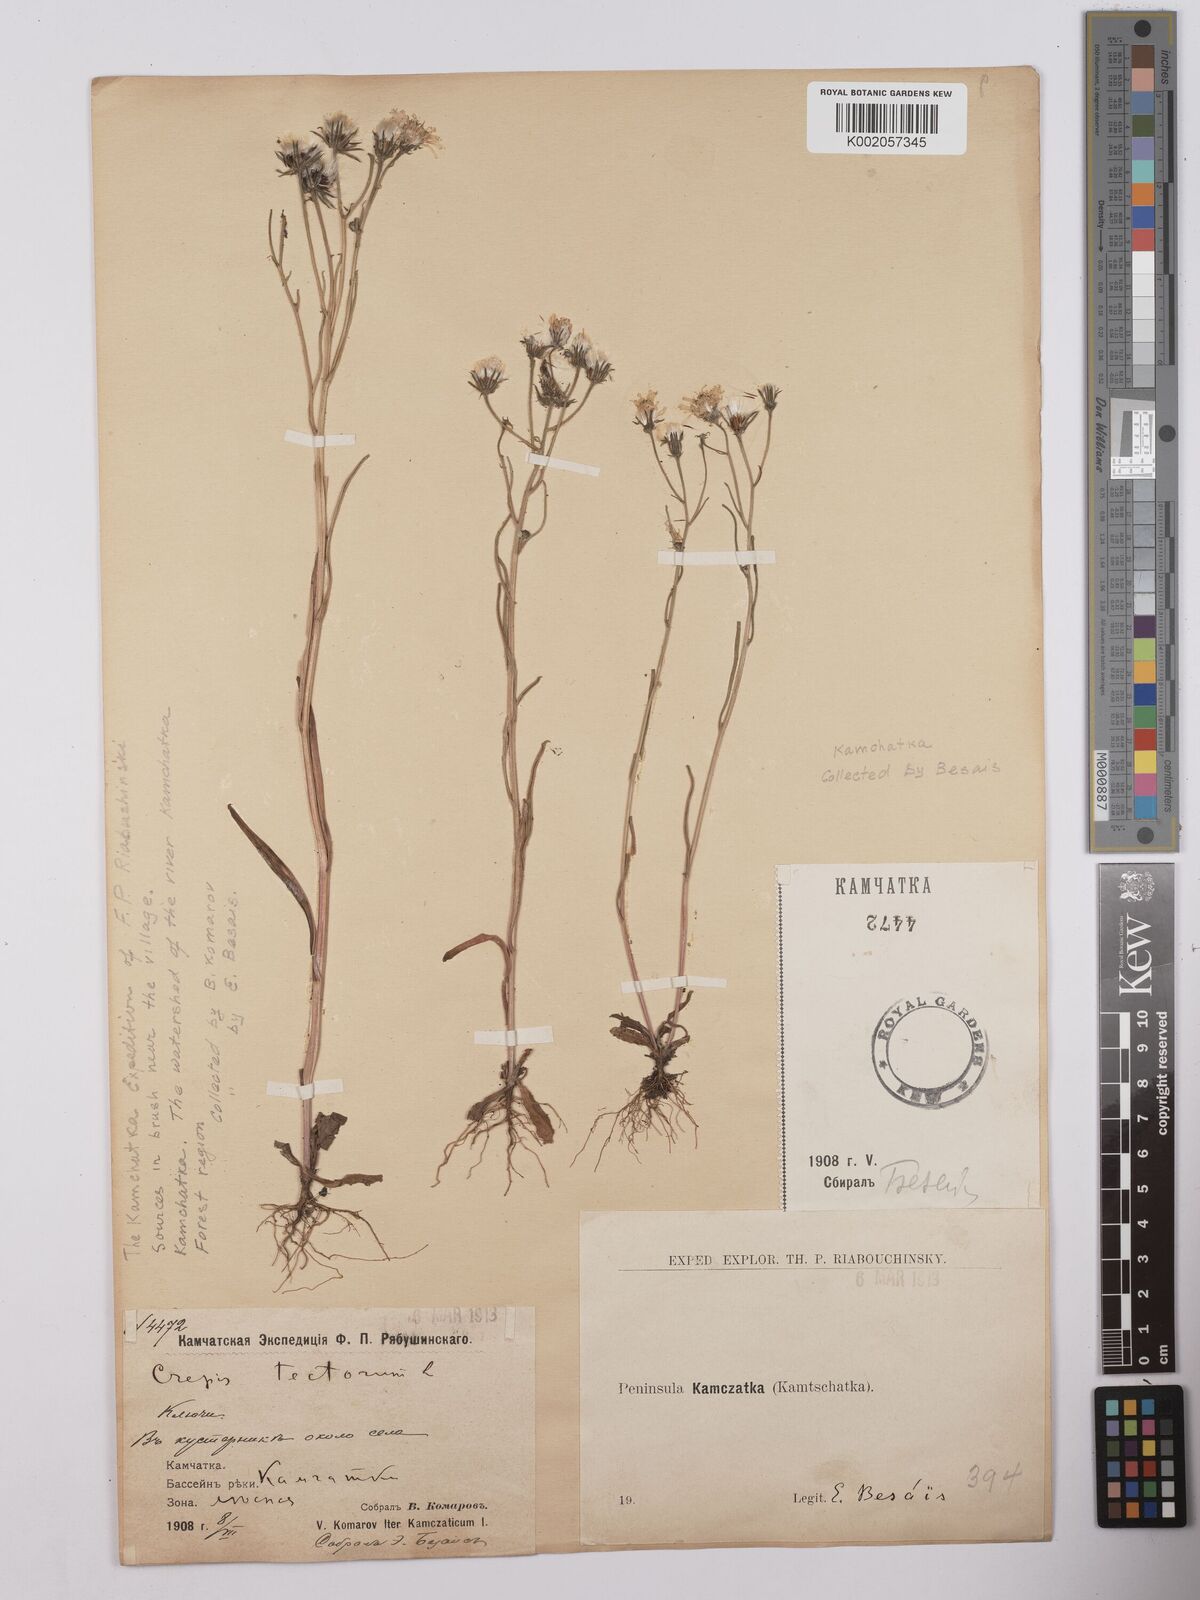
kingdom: Plantae
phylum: Tracheophyta
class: Magnoliopsida
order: Asterales
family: Asteraceae
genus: Crepis
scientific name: Crepis tectorum
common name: Narrow-leaved hawk's-beard
